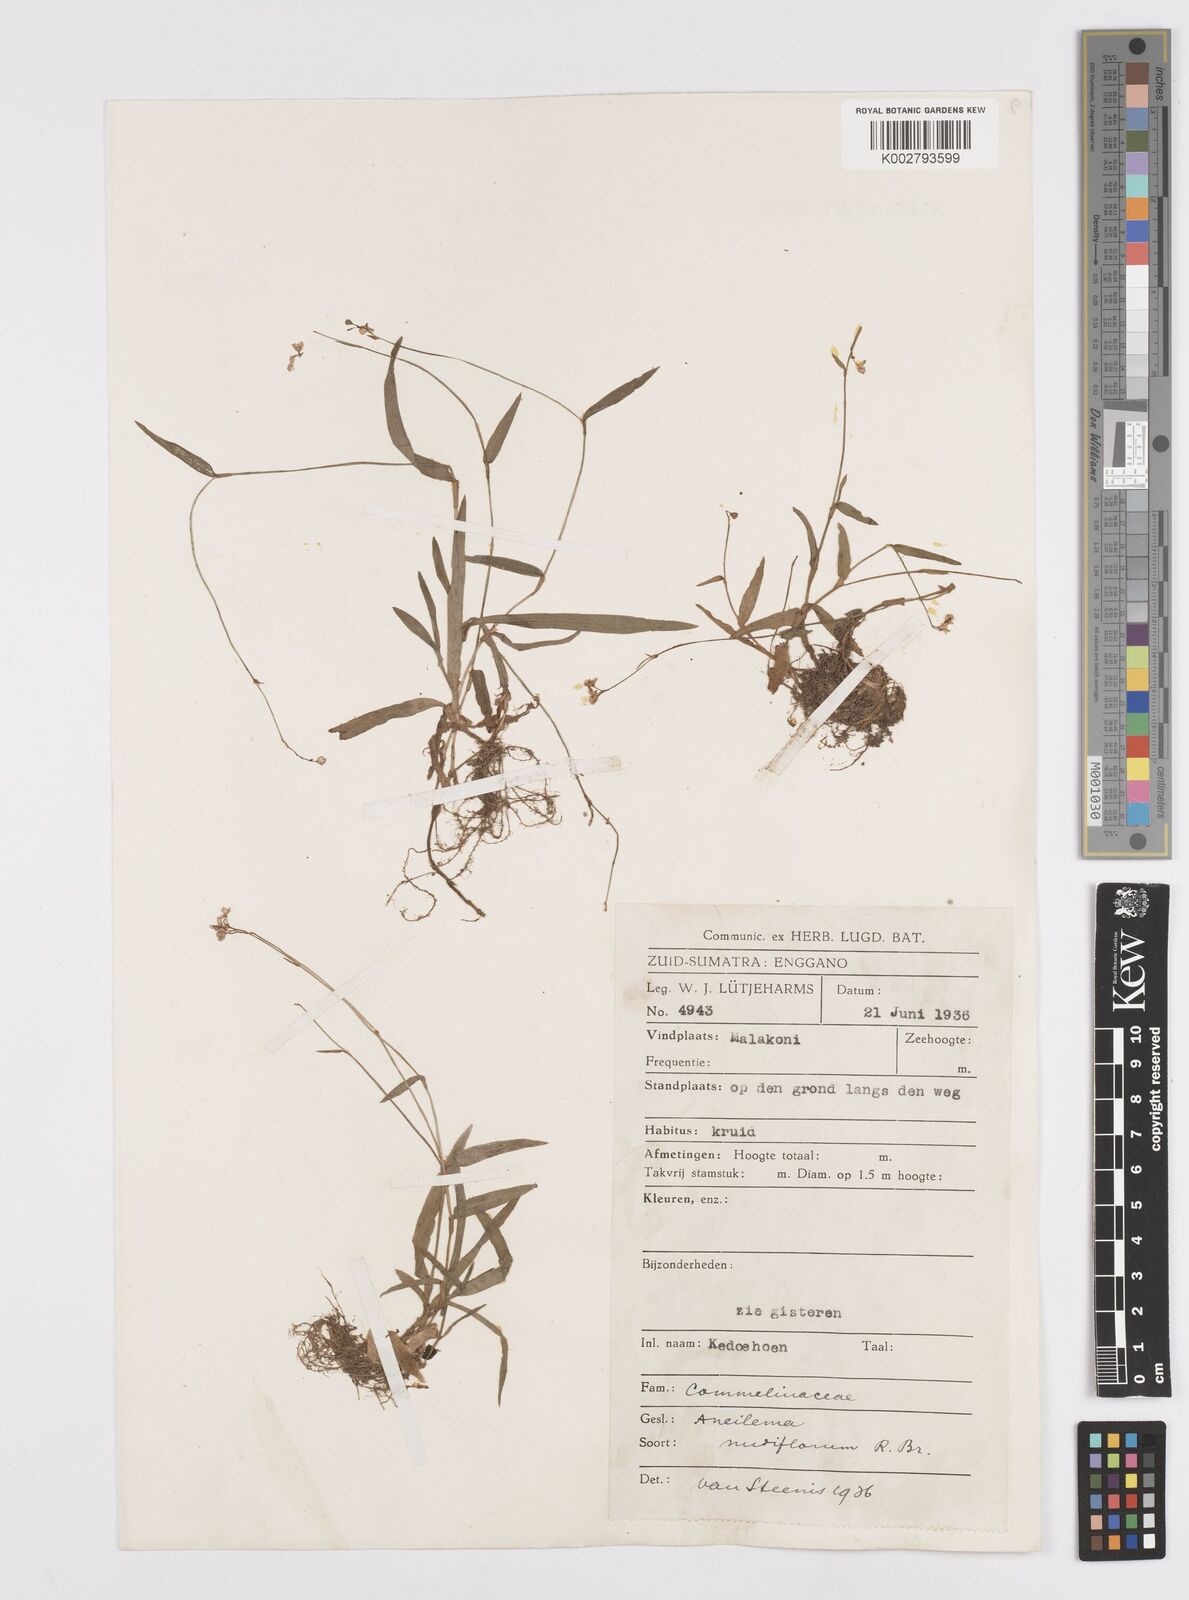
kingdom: Plantae
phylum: Tracheophyta
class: Liliopsida
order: Commelinales
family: Commelinaceae
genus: Murdannia
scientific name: Murdannia nudiflora
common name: Nakedstem dewflower
